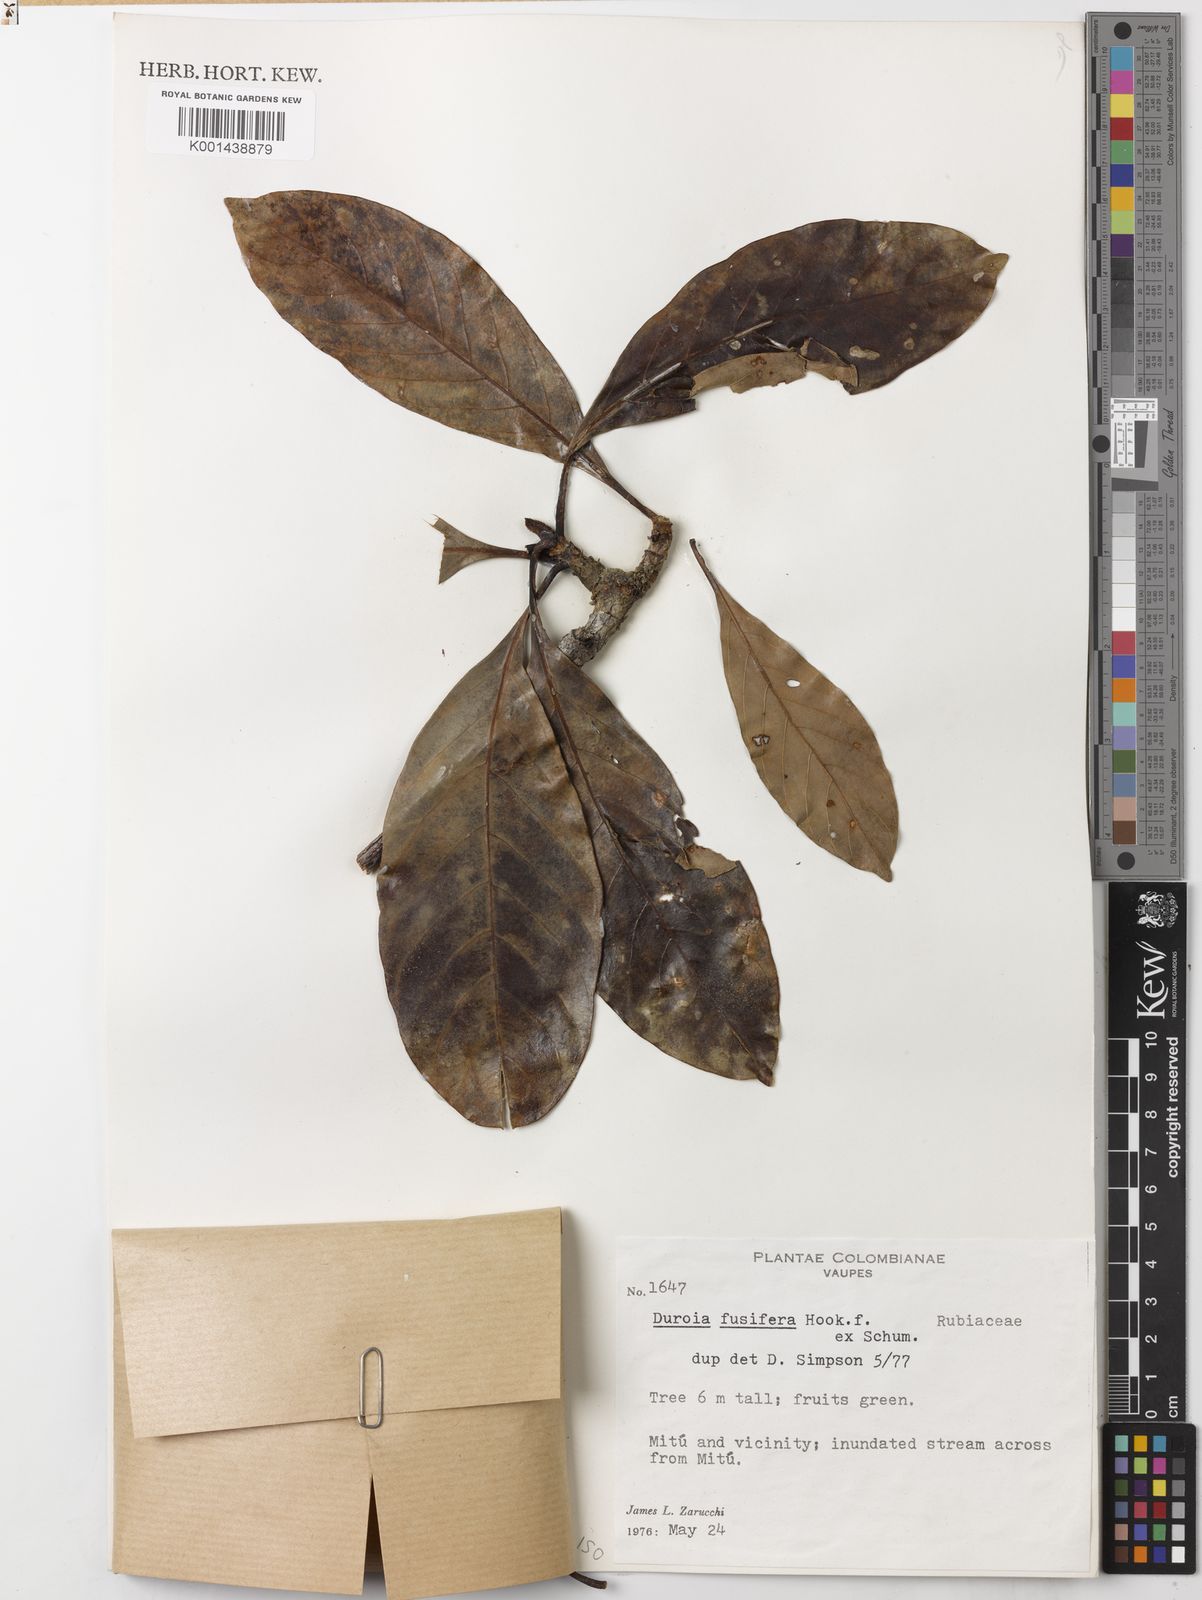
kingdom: Plantae
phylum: Tracheophyta
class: Magnoliopsida
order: Gentianales
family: Rubiaceae
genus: Duroia
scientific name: Duroia fusifera
